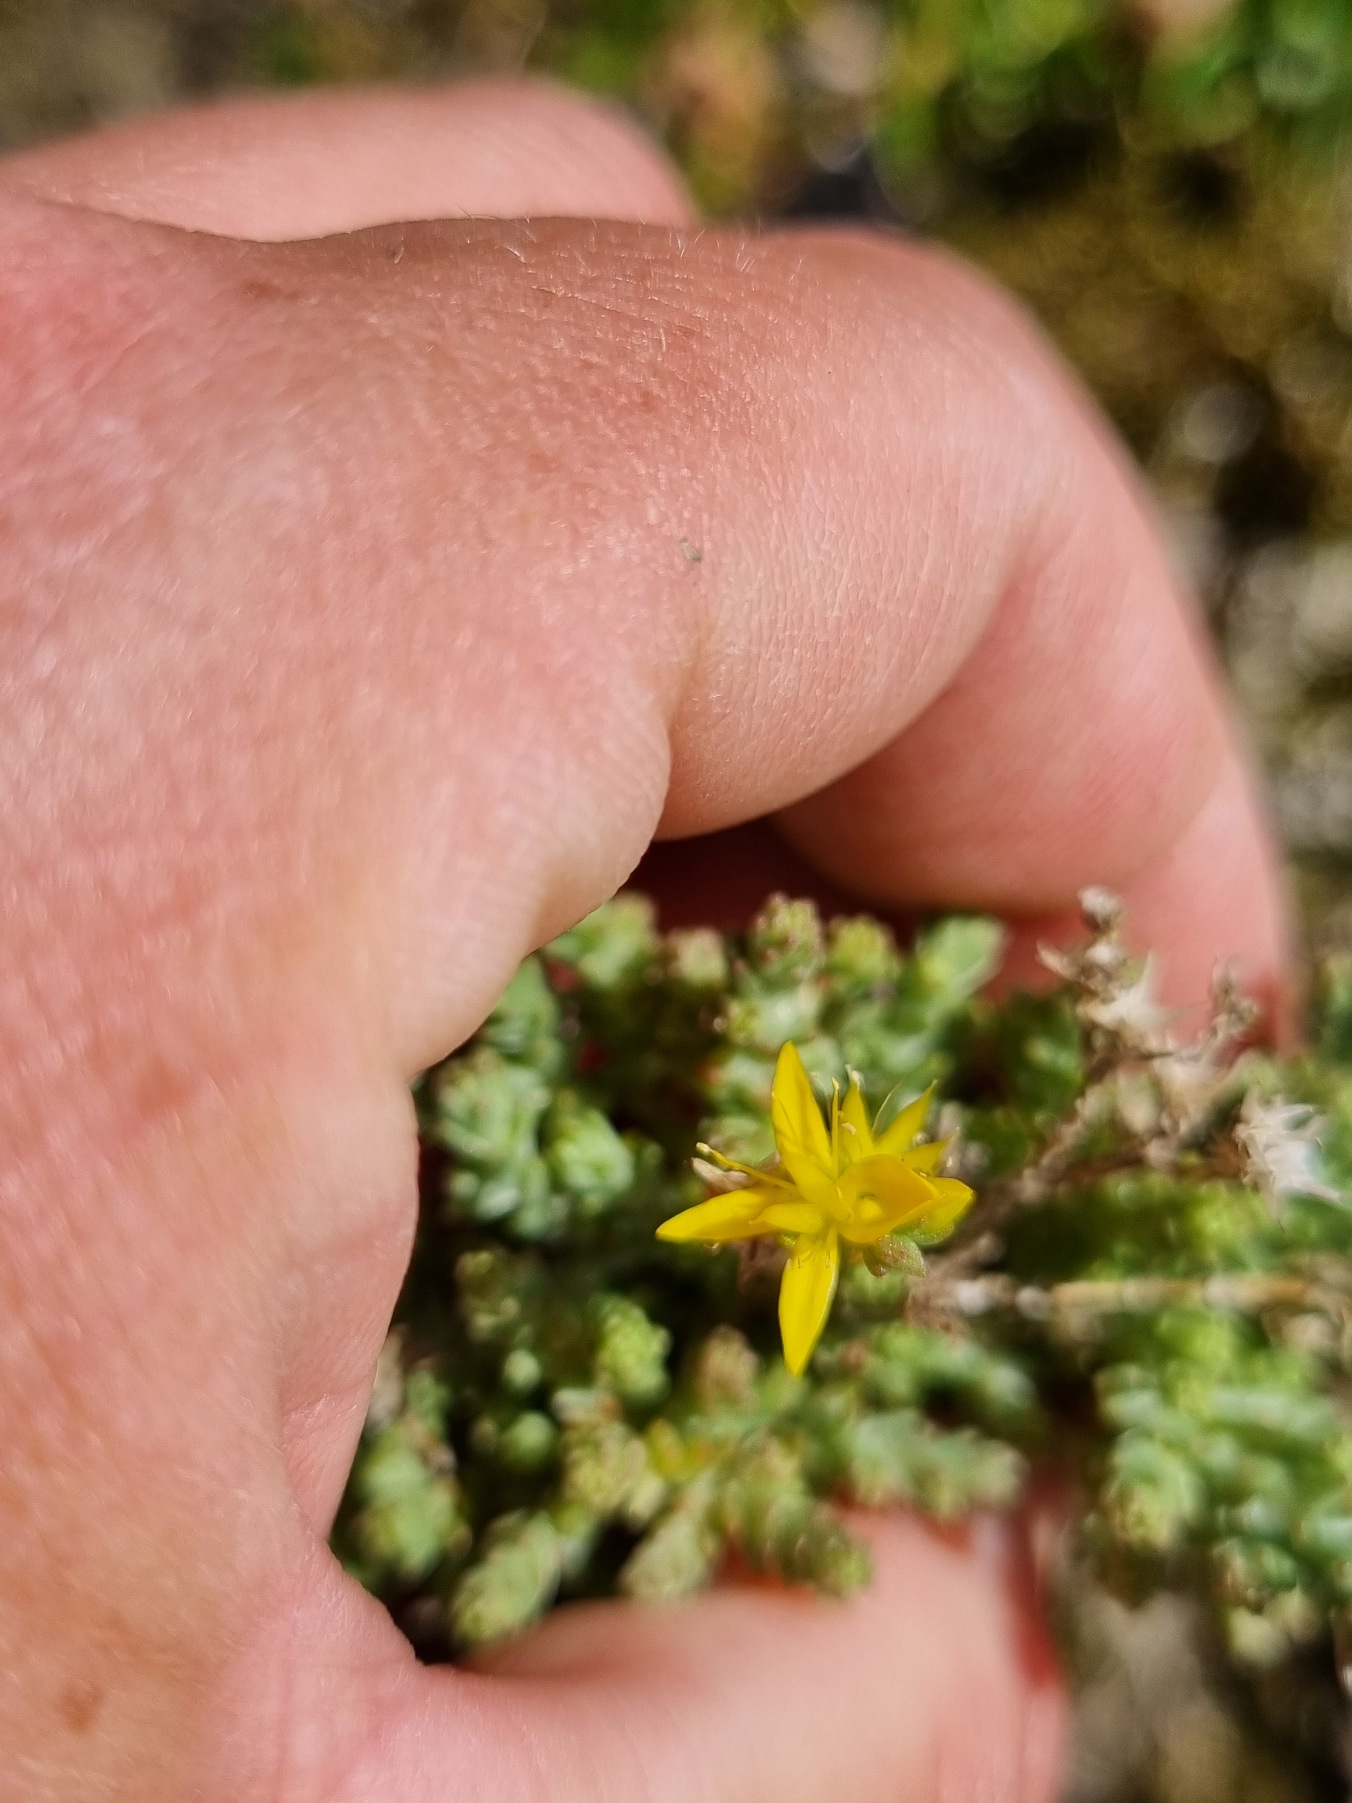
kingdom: Plantae
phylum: Tracheophyta
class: Magnoliopsida
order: Saxifragales
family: Crassulaceae
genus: Sedum
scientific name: Sedum acre
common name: Bidende stenurt
